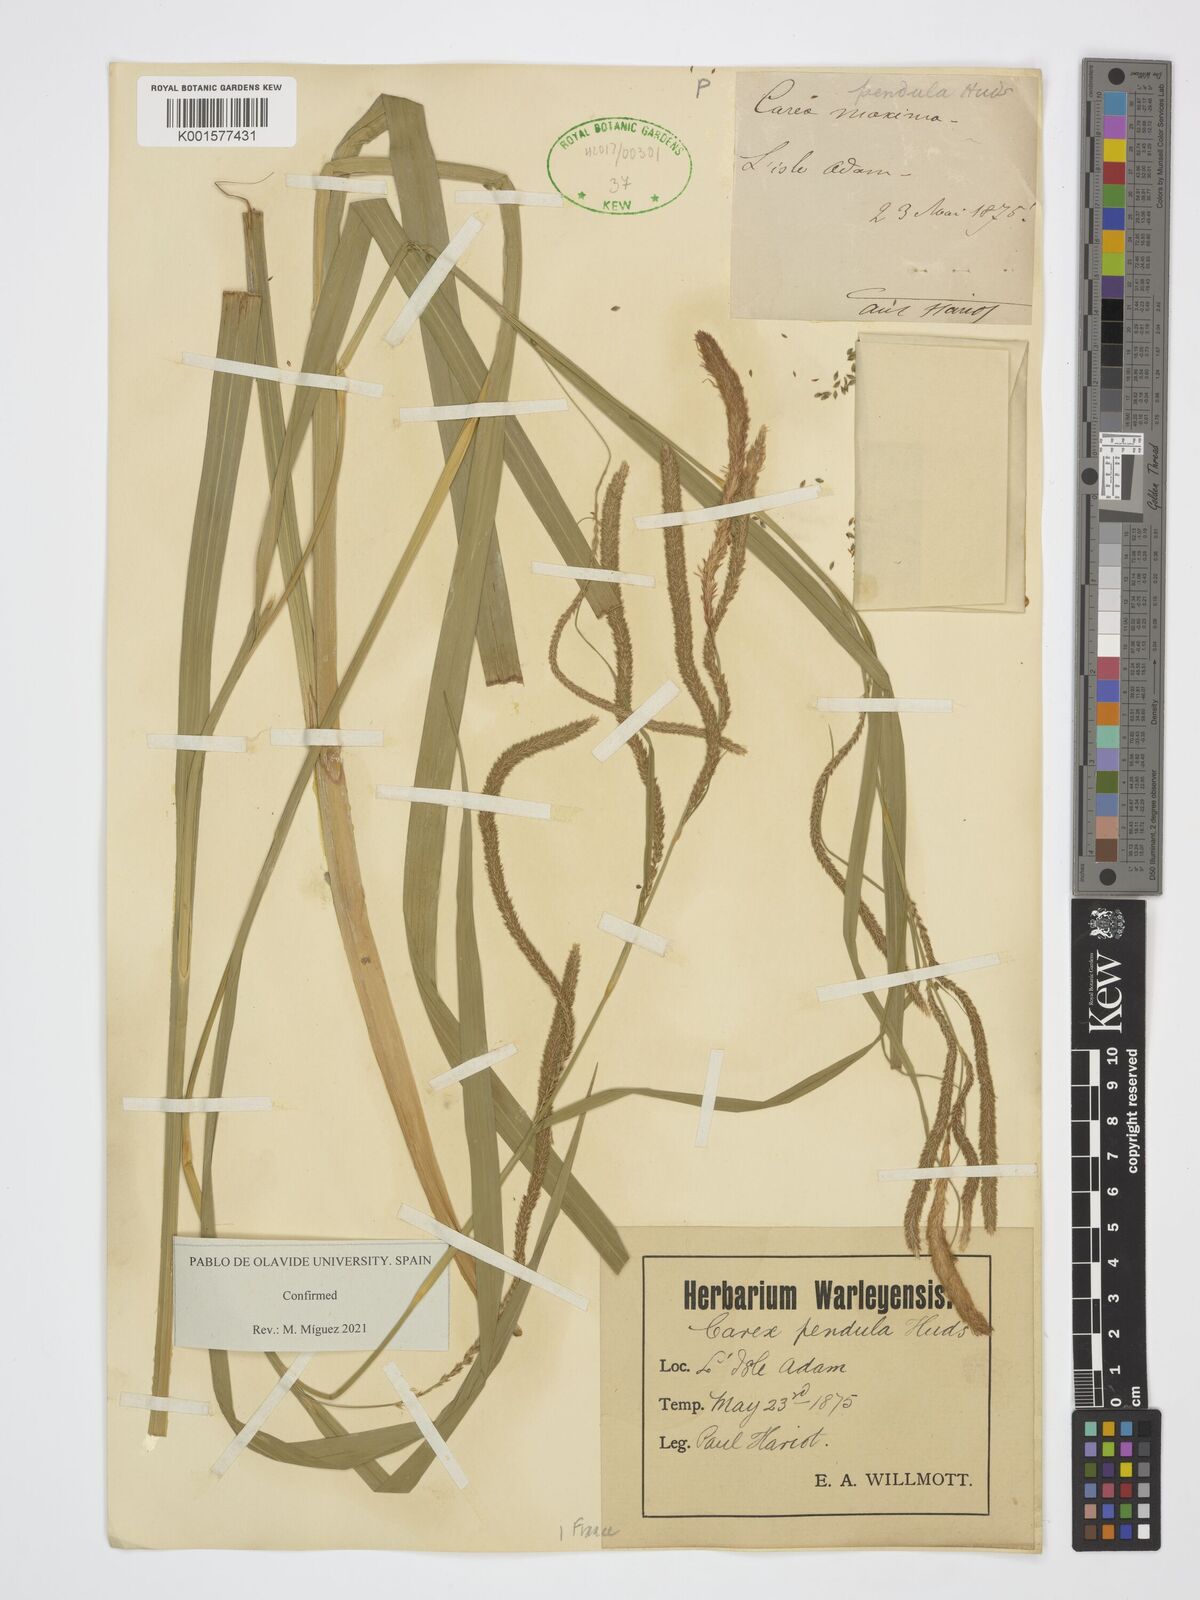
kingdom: Plantae
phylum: Tracheophyta
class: Liliopsida
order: Poales
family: Cyperaceae
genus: Carex
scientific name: Carex pendula
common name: Pendulous sedge
